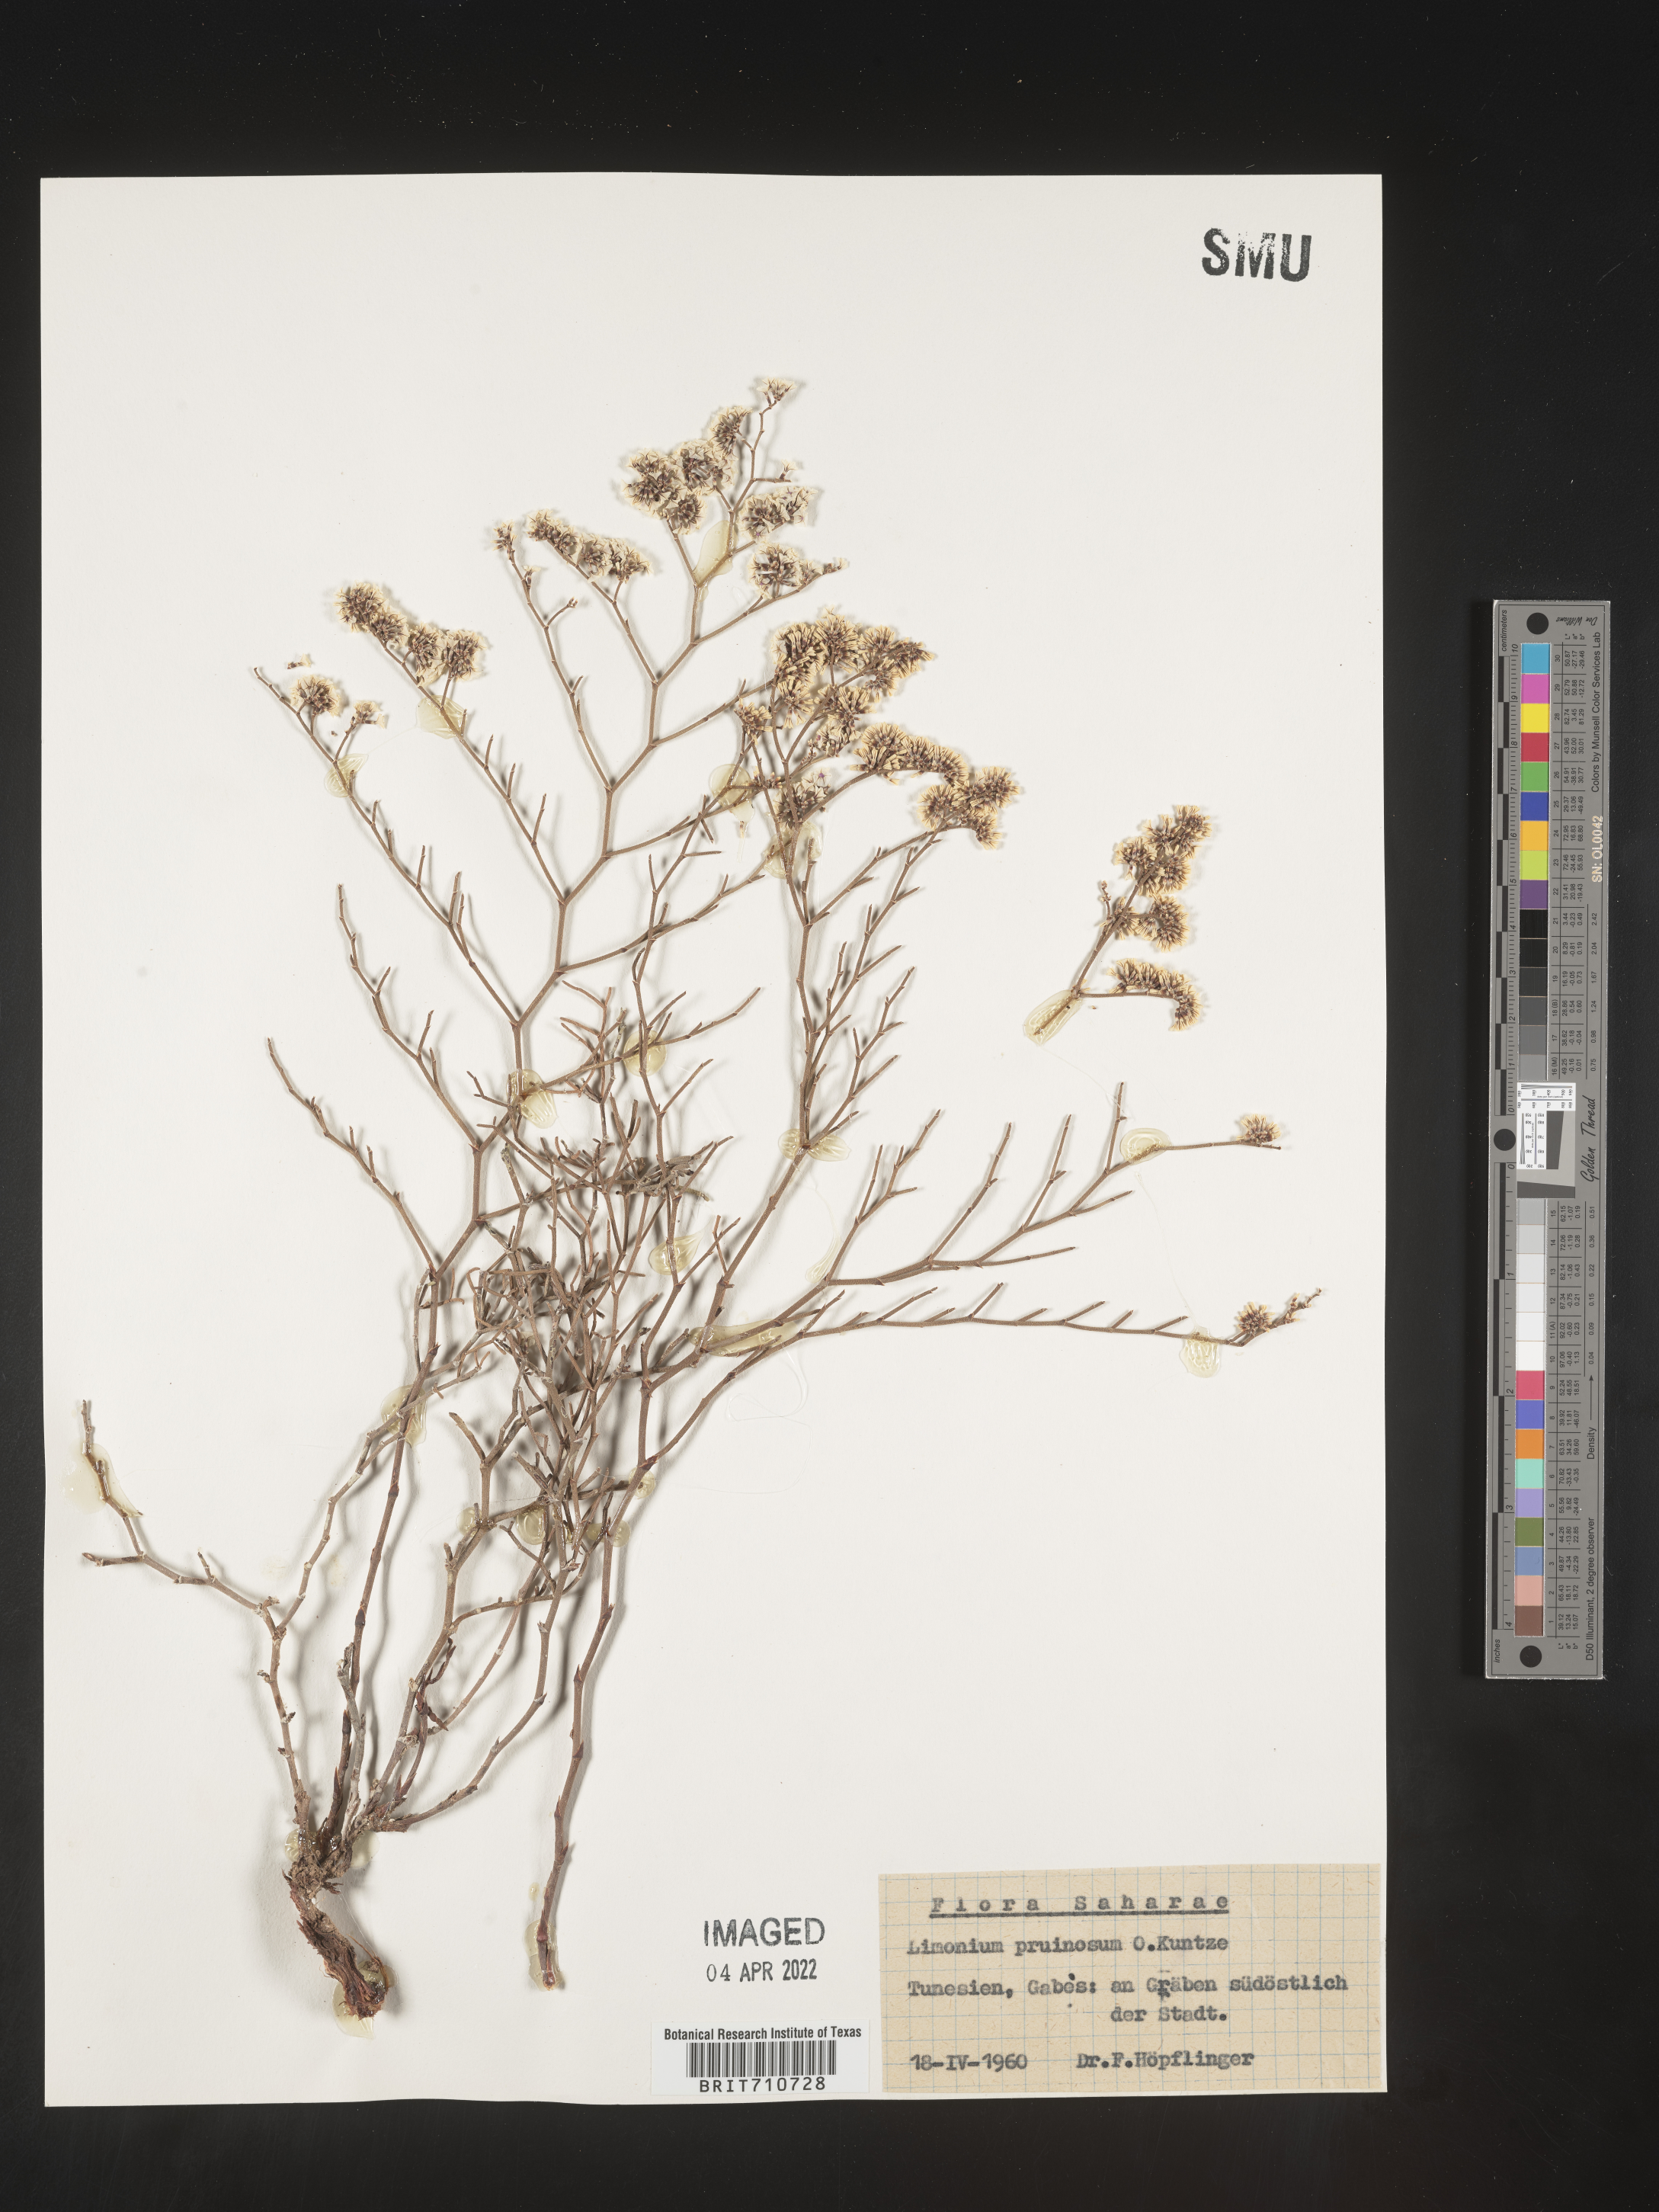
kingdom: Plantae
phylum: Tracheophyta
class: Magnoliopsida
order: Caryophyllales
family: Plumbaginaceae
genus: Limonium
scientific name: Limonium
